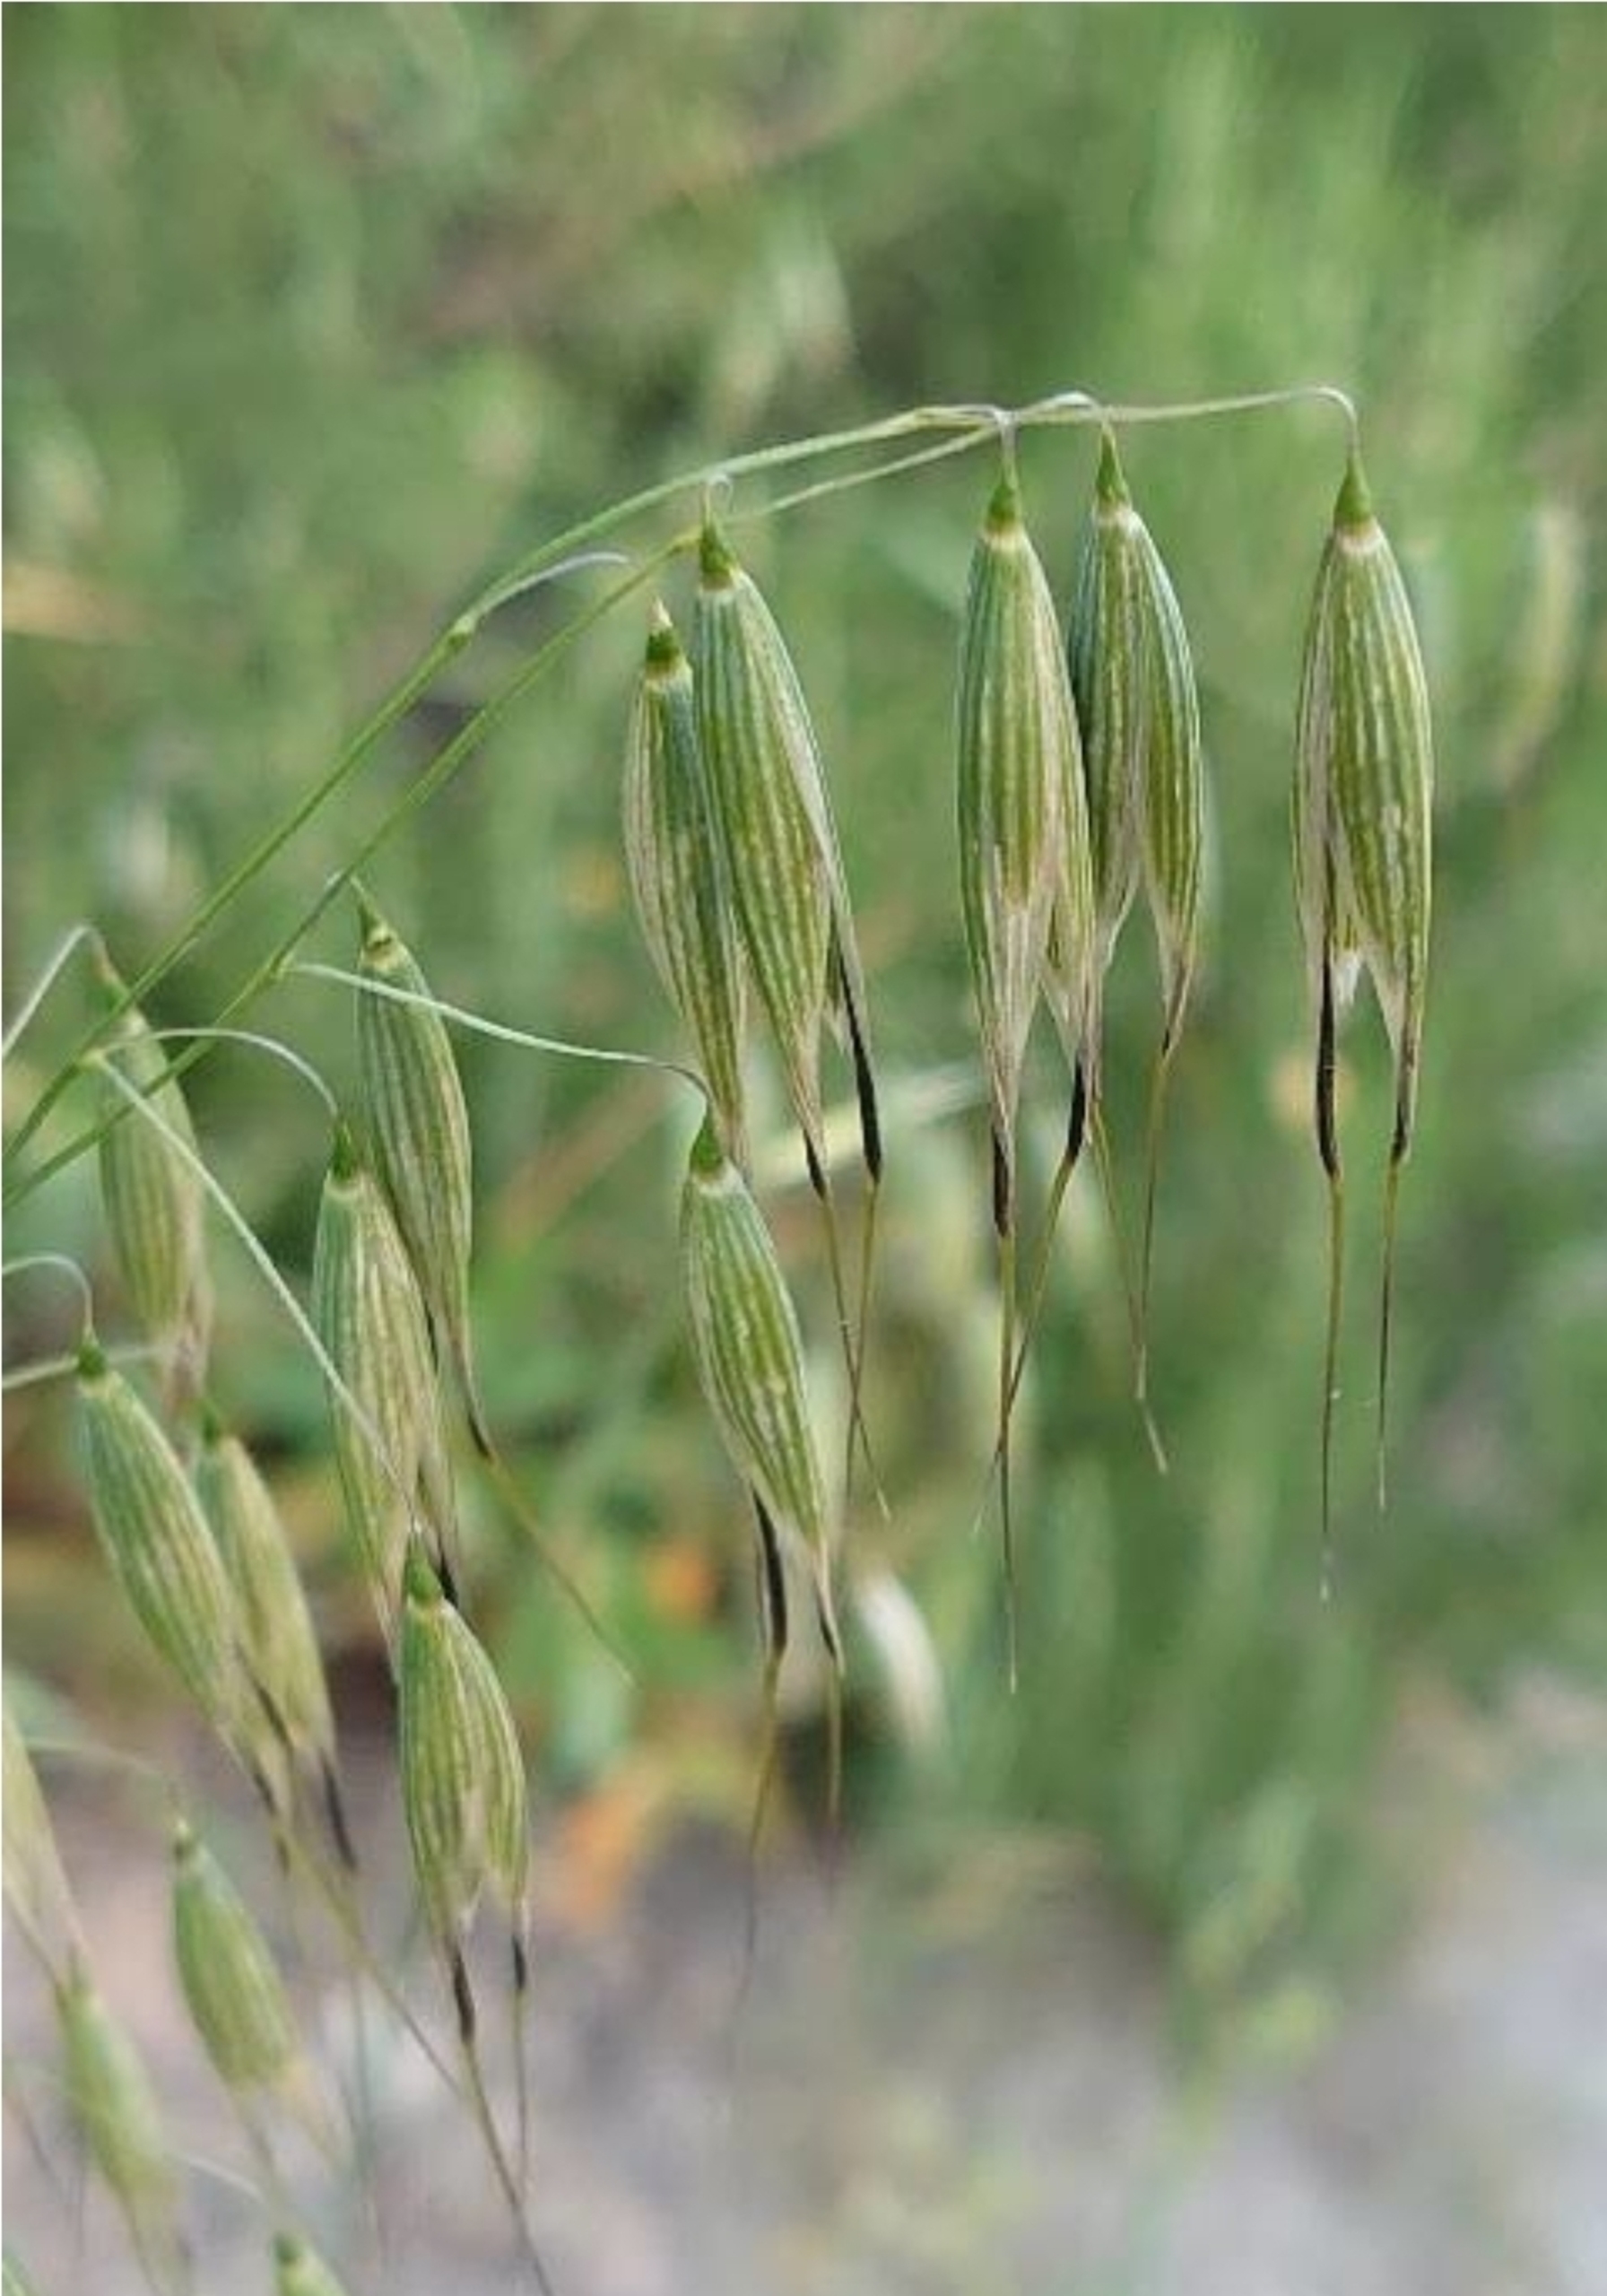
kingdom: Plantae
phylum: Tracheophyta
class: Liliopsida
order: Poales
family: Poaceae
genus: Avena
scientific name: Avena fatua
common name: Flyve-havre
